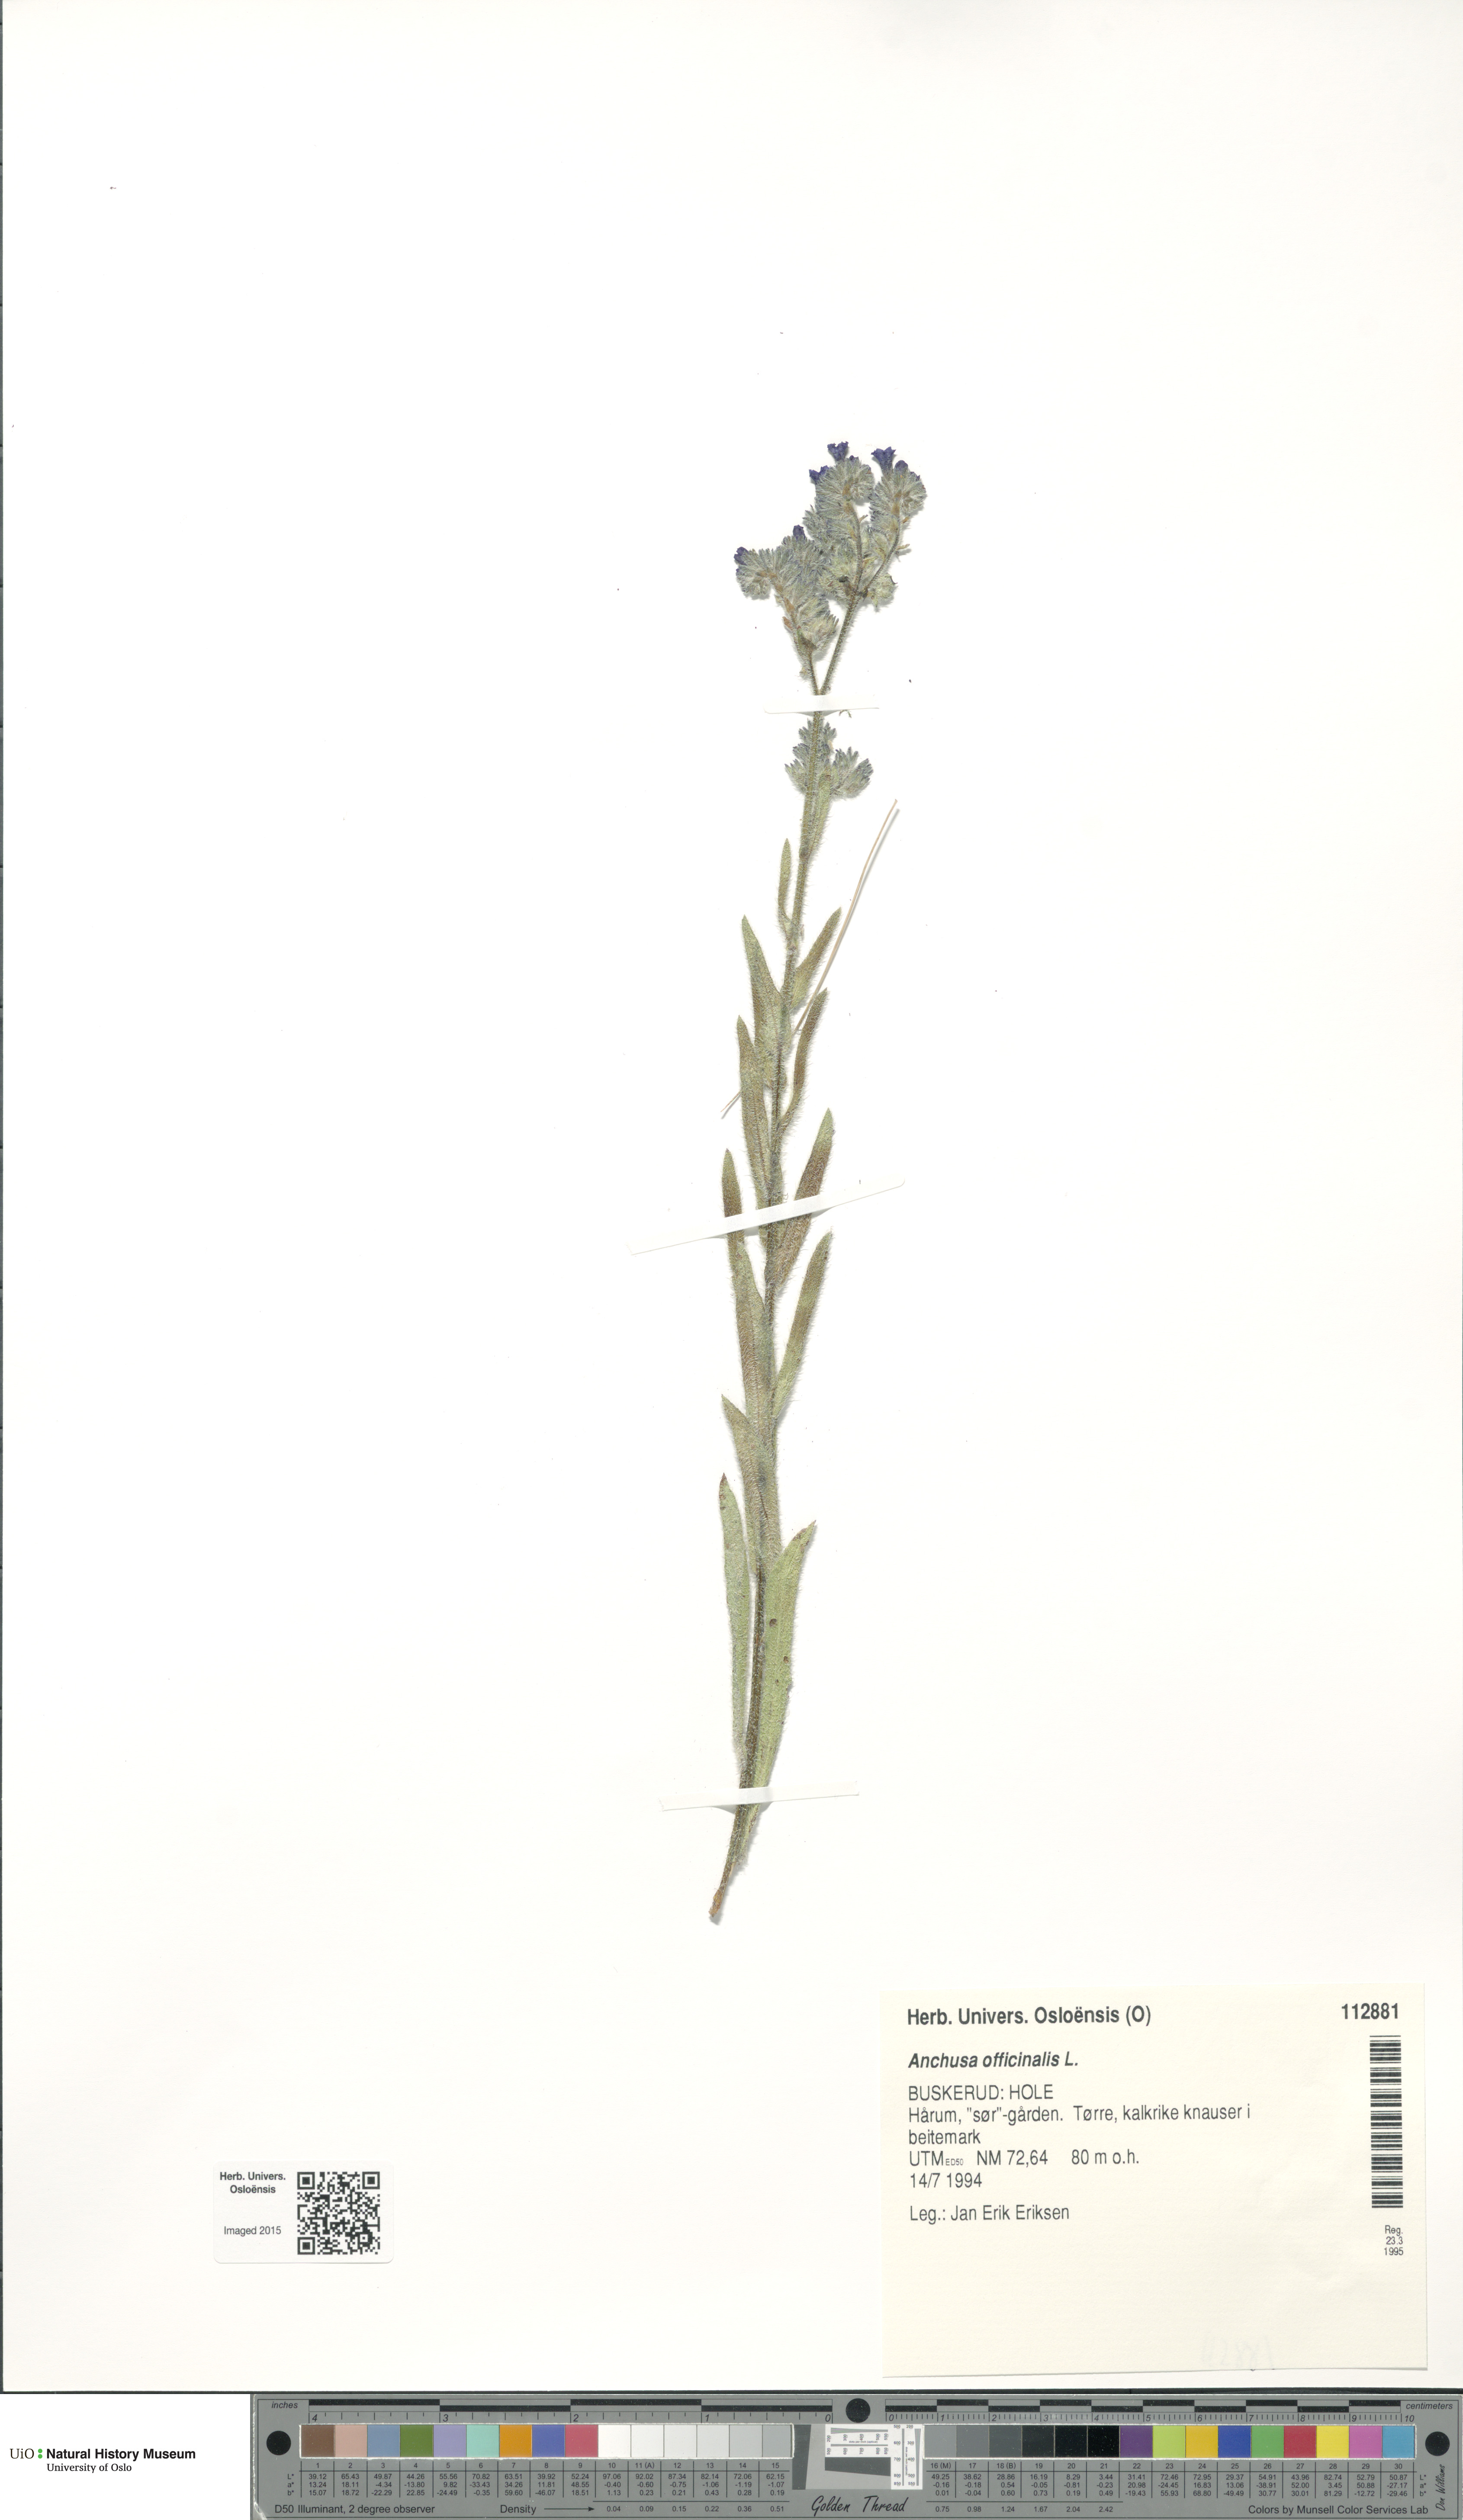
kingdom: Plantae
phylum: Tracheophyta
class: Magnoliopsida
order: Boraginales
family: Boraginaceae
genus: Anchusa
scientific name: Anchusa officinalis
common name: Alkanet
